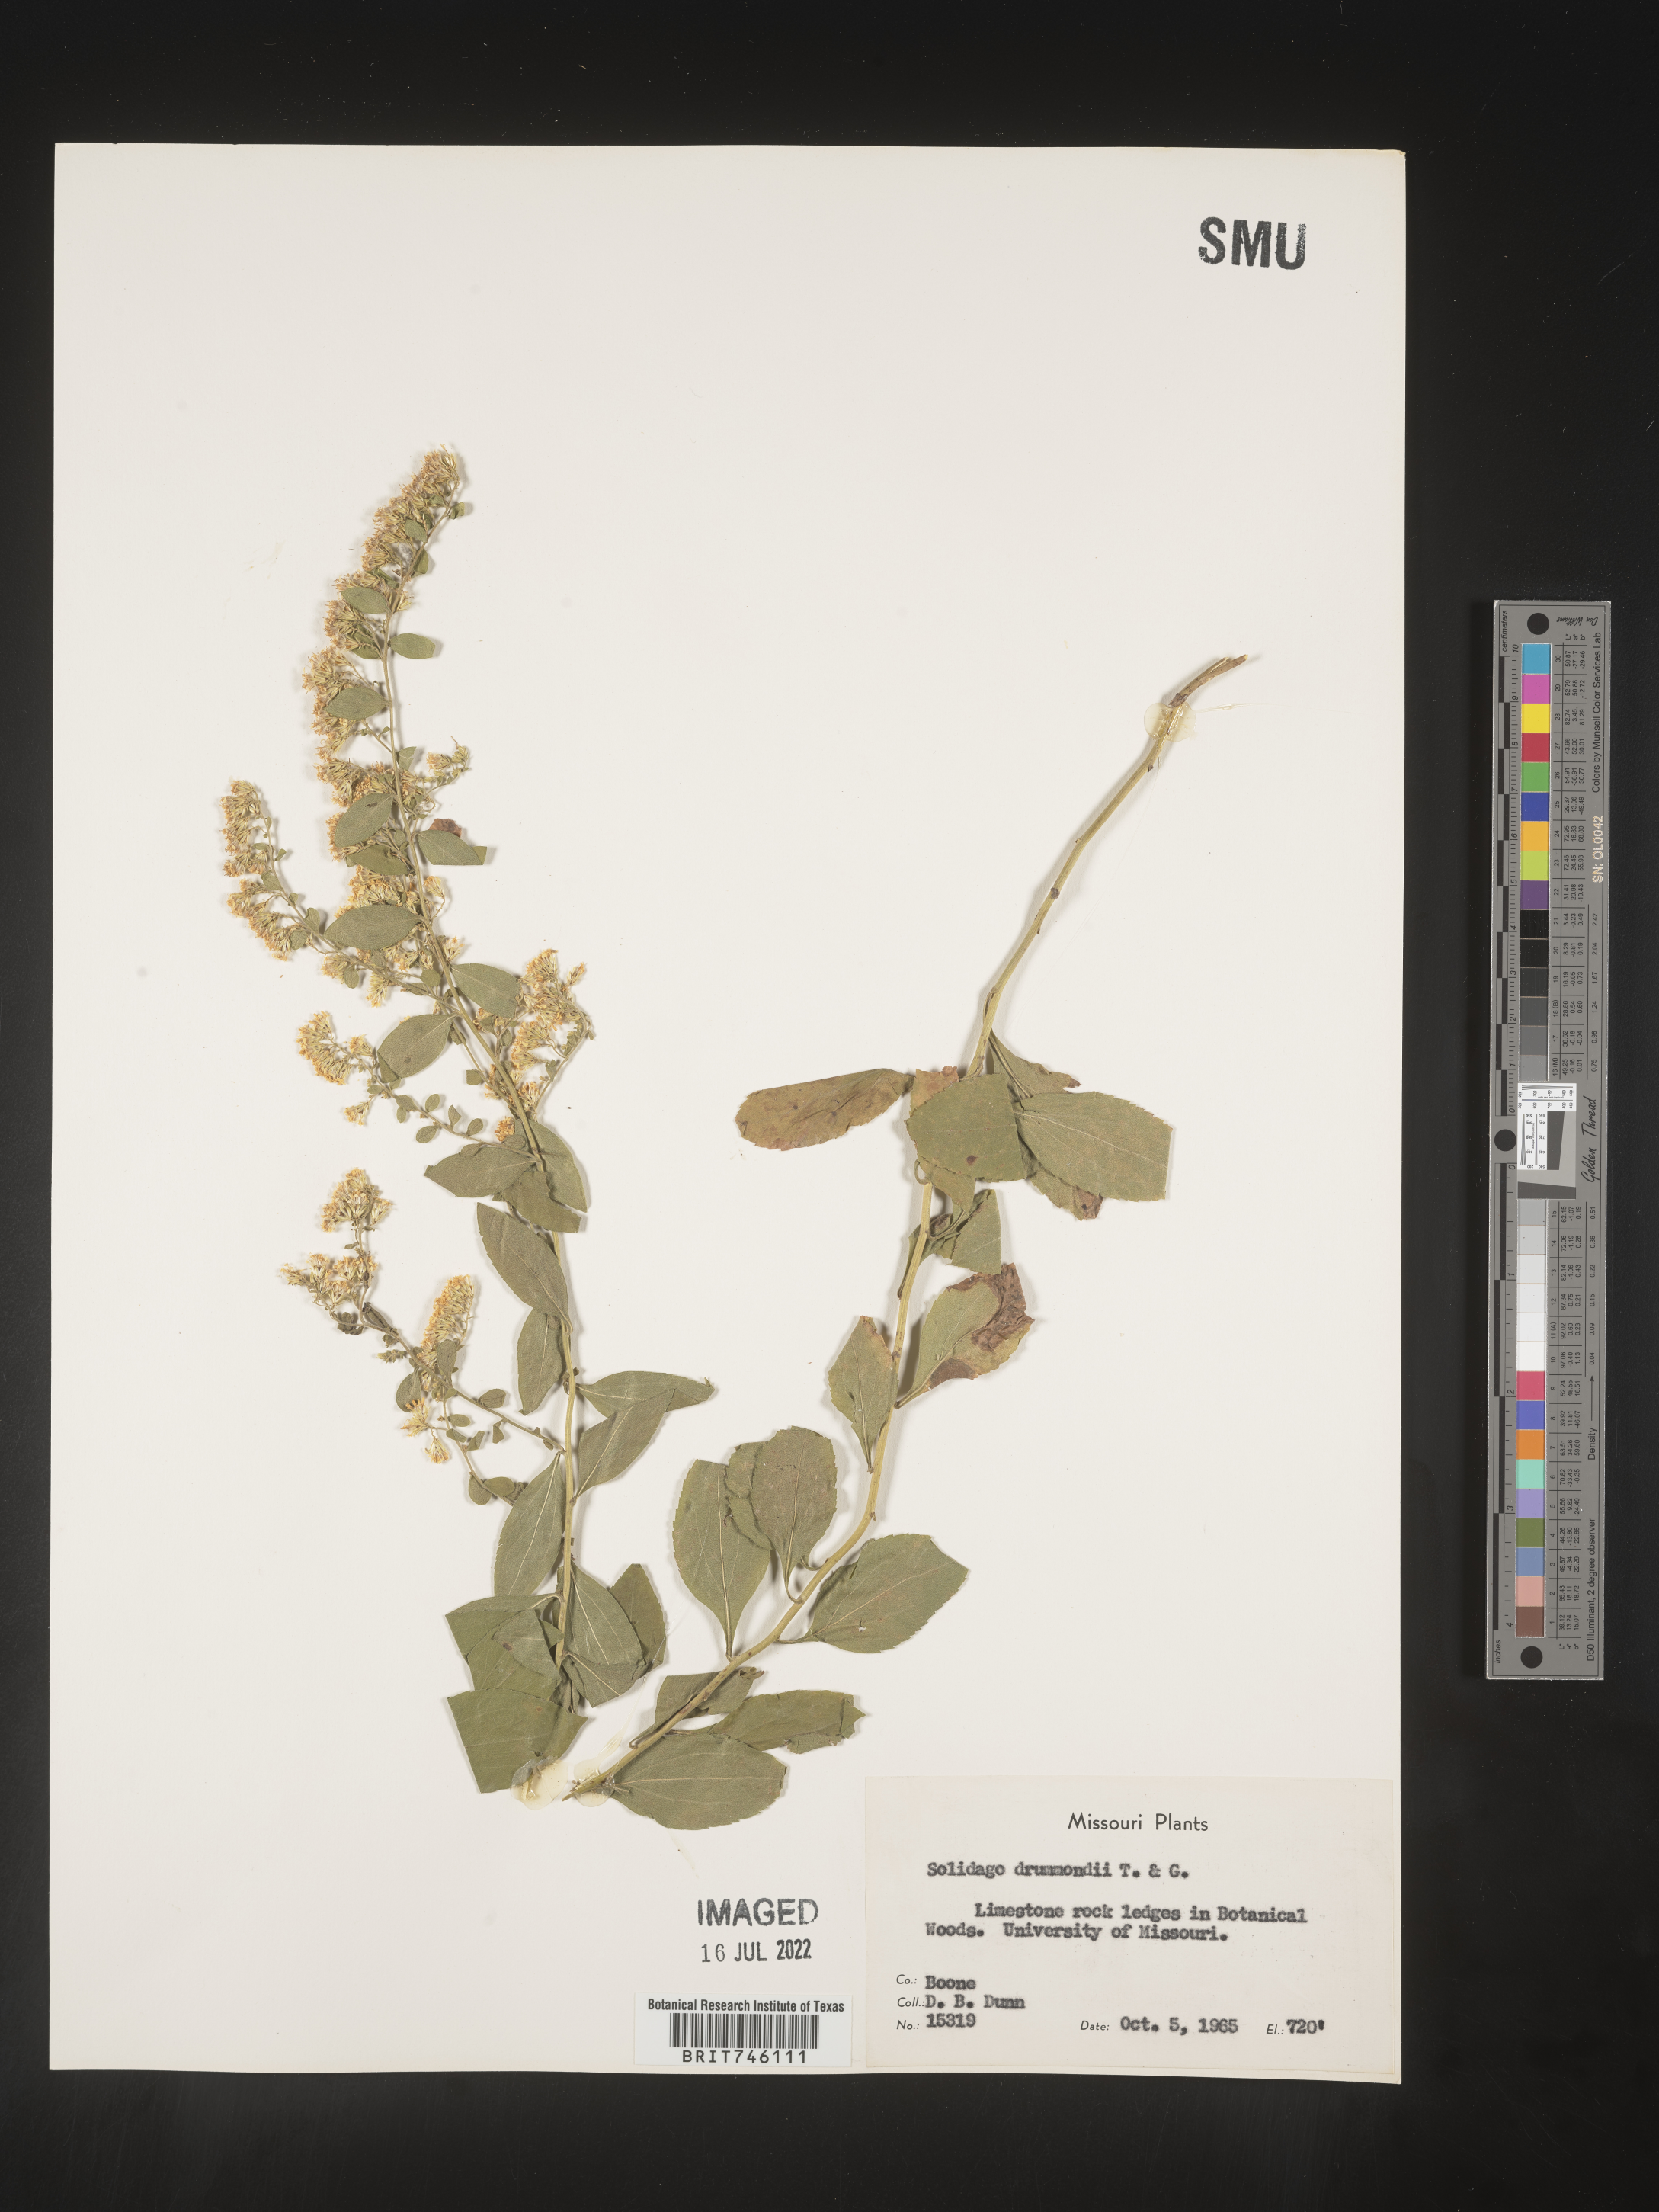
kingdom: Plantae
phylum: Tracheophyta
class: Magnoliopsida
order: Asterales
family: Asteraceae
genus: Solidago
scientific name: Solidago drummondii
